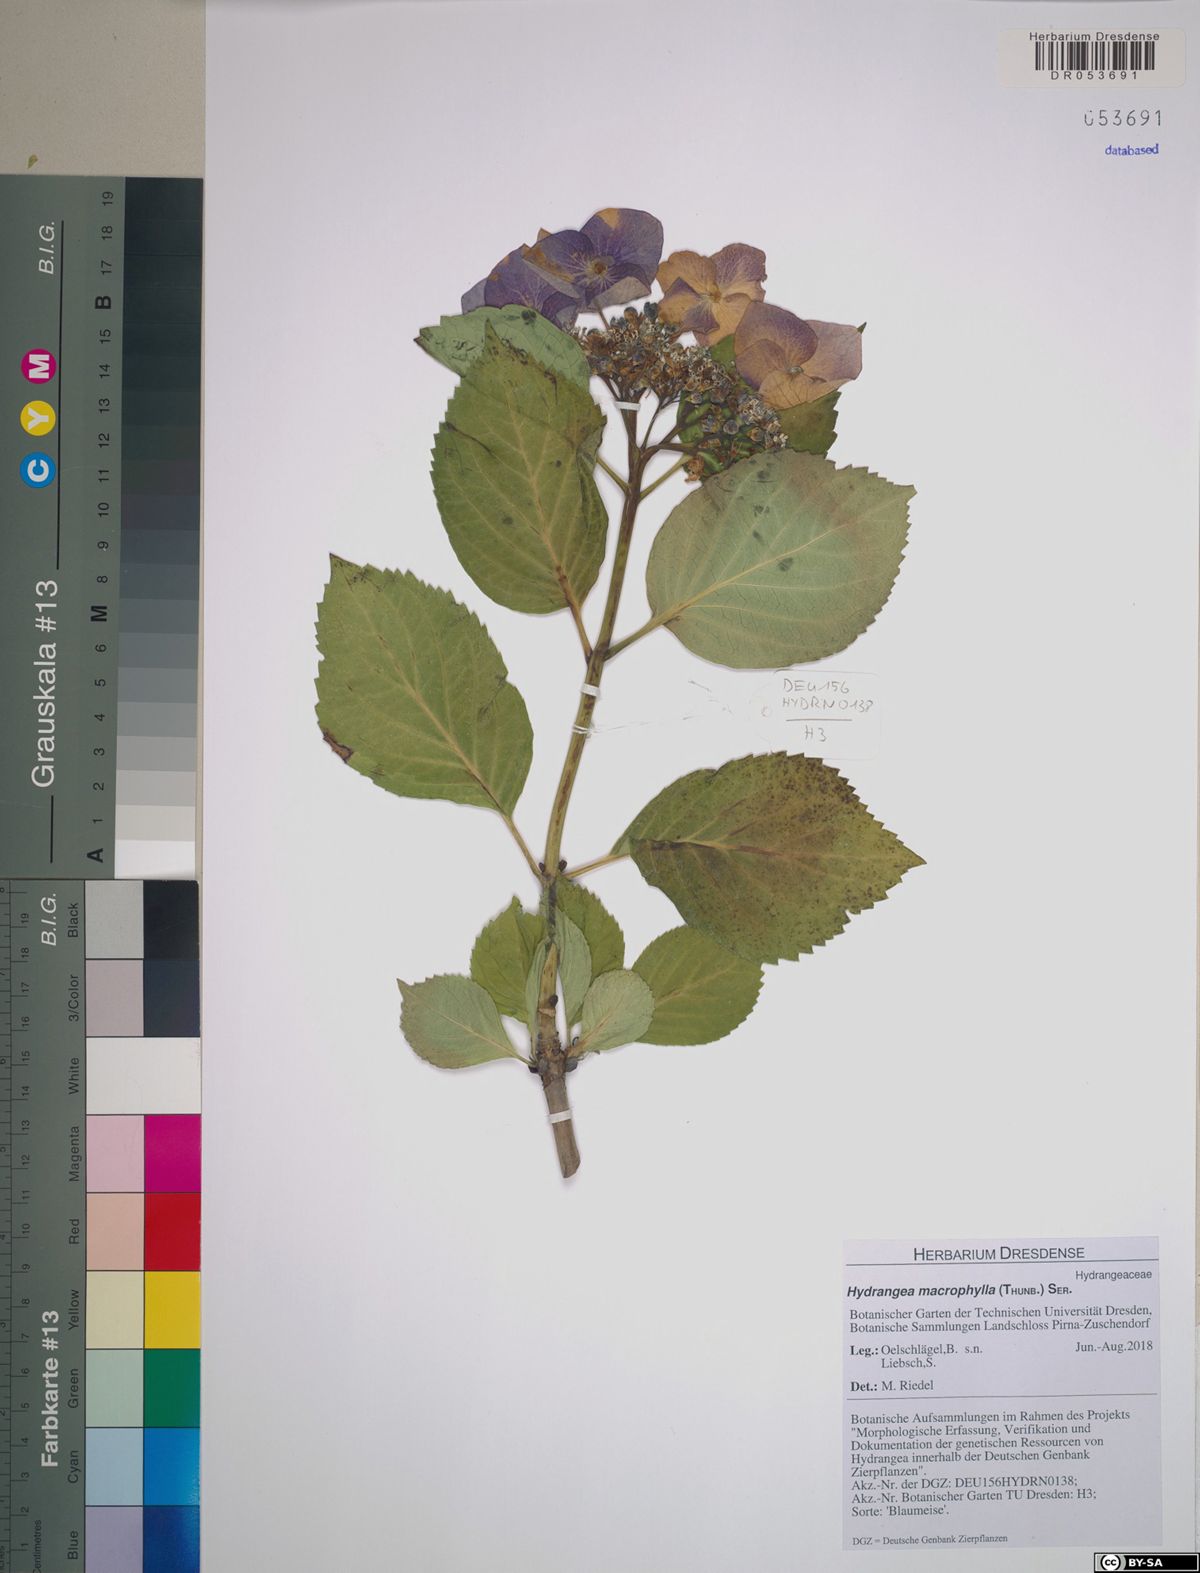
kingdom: Plantae
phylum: Tracheophyta
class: Magnoliopsida
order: Cornales
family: Hydrangeaceae
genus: Hydrangea
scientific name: Hydrangea macrophylla
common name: Hydrangea
